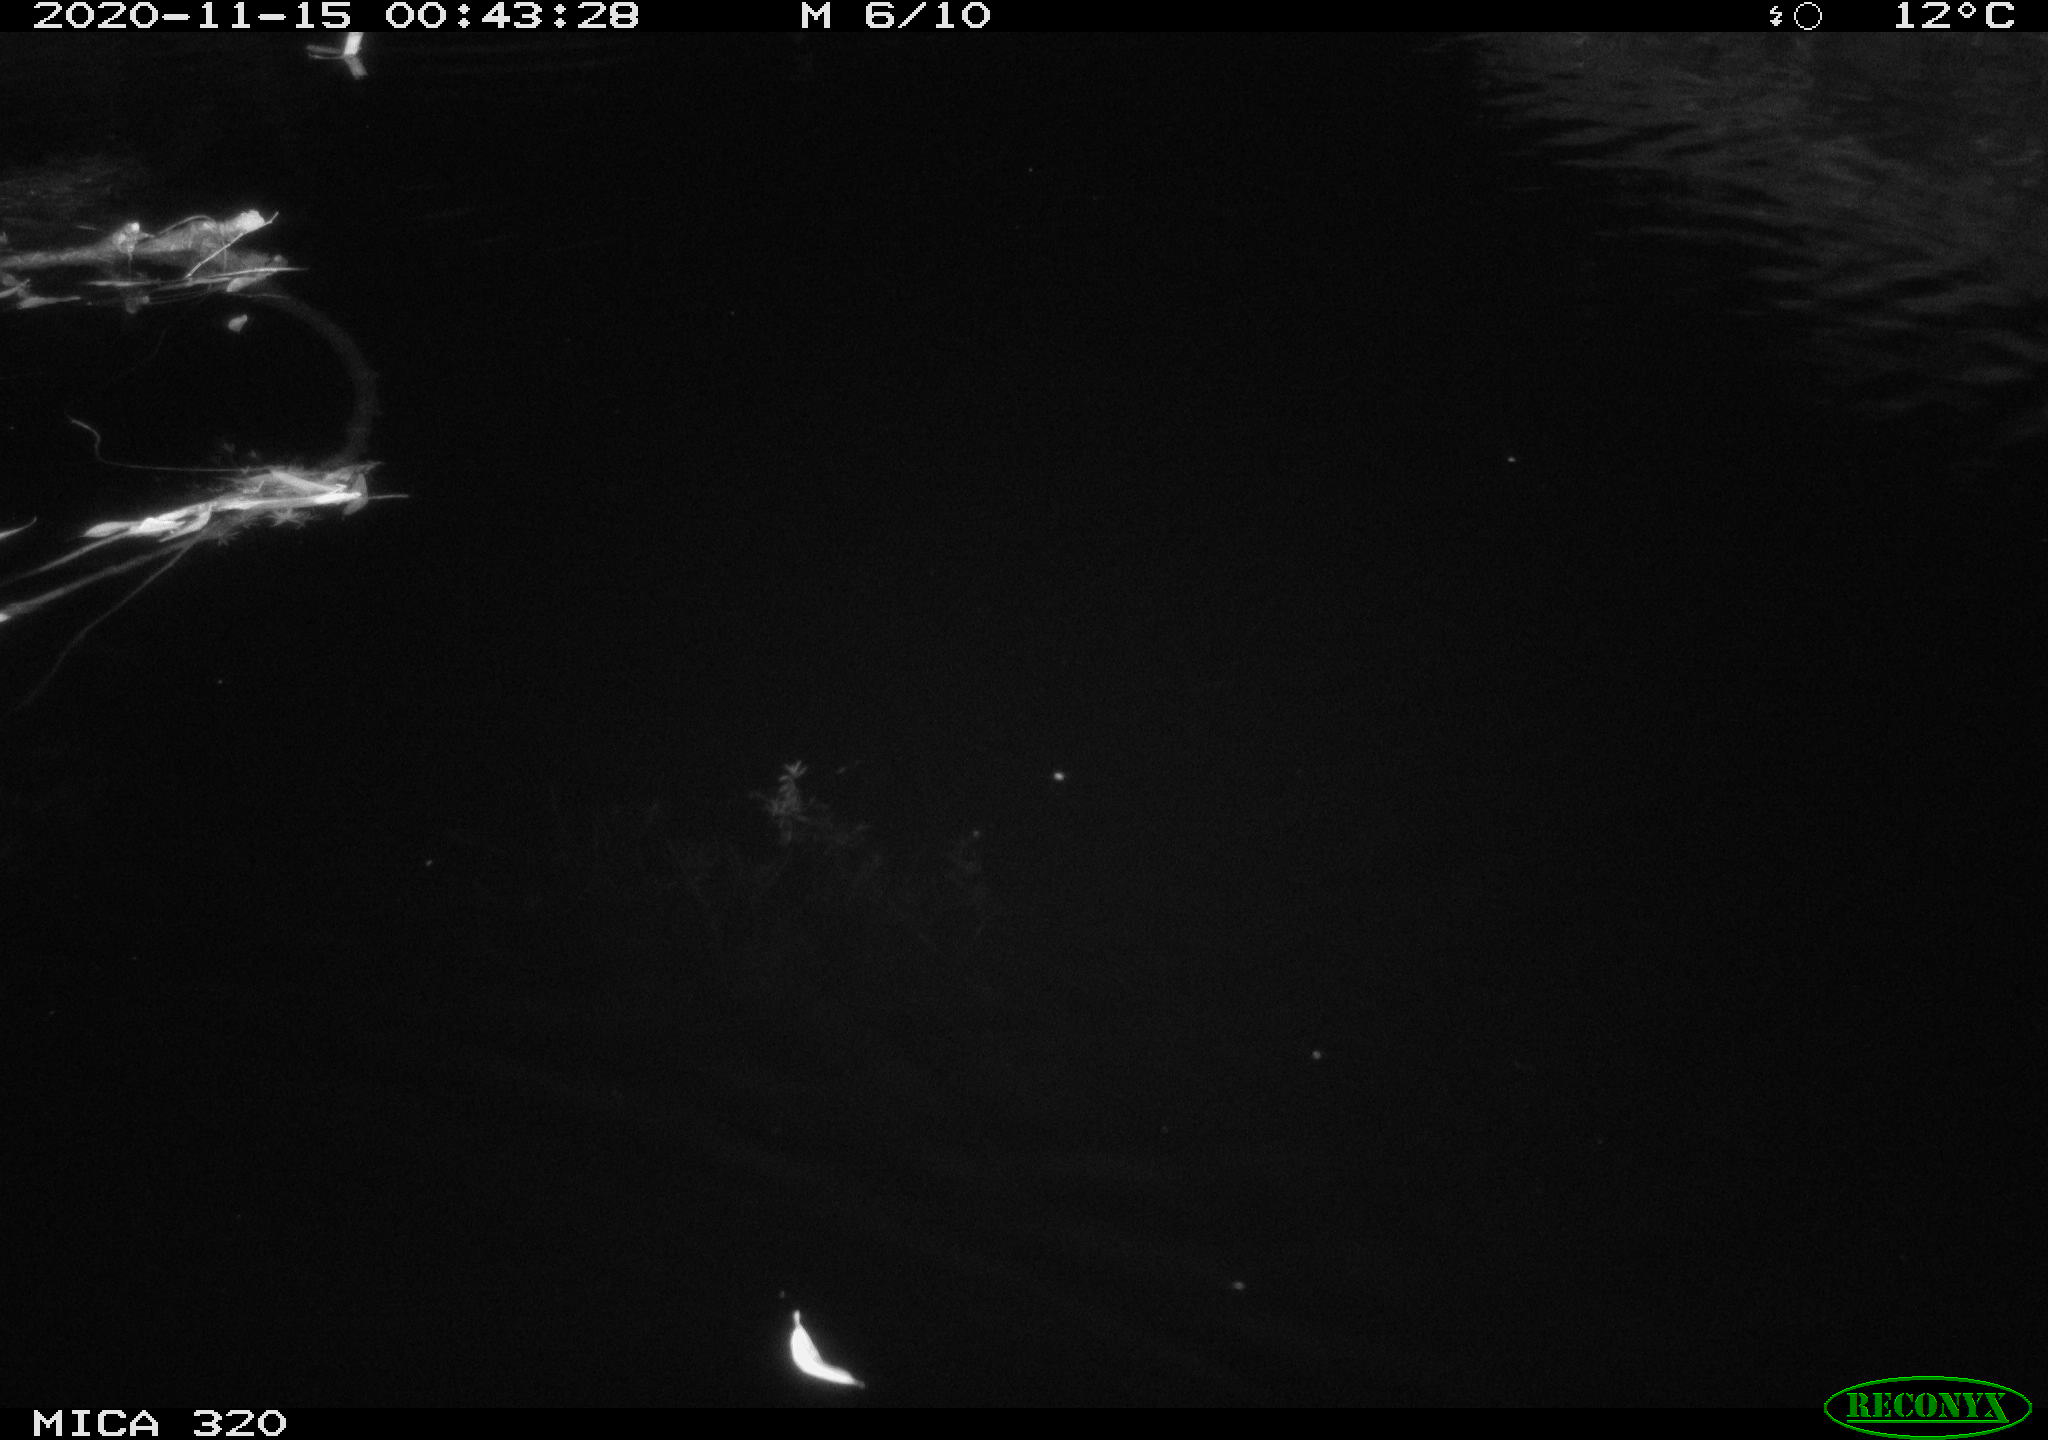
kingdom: Animalia
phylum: Chordata
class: Aves
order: Gruiformes
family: Rallidae
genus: Gallinula
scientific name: Gallinula chloropus
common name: Common moorhen
